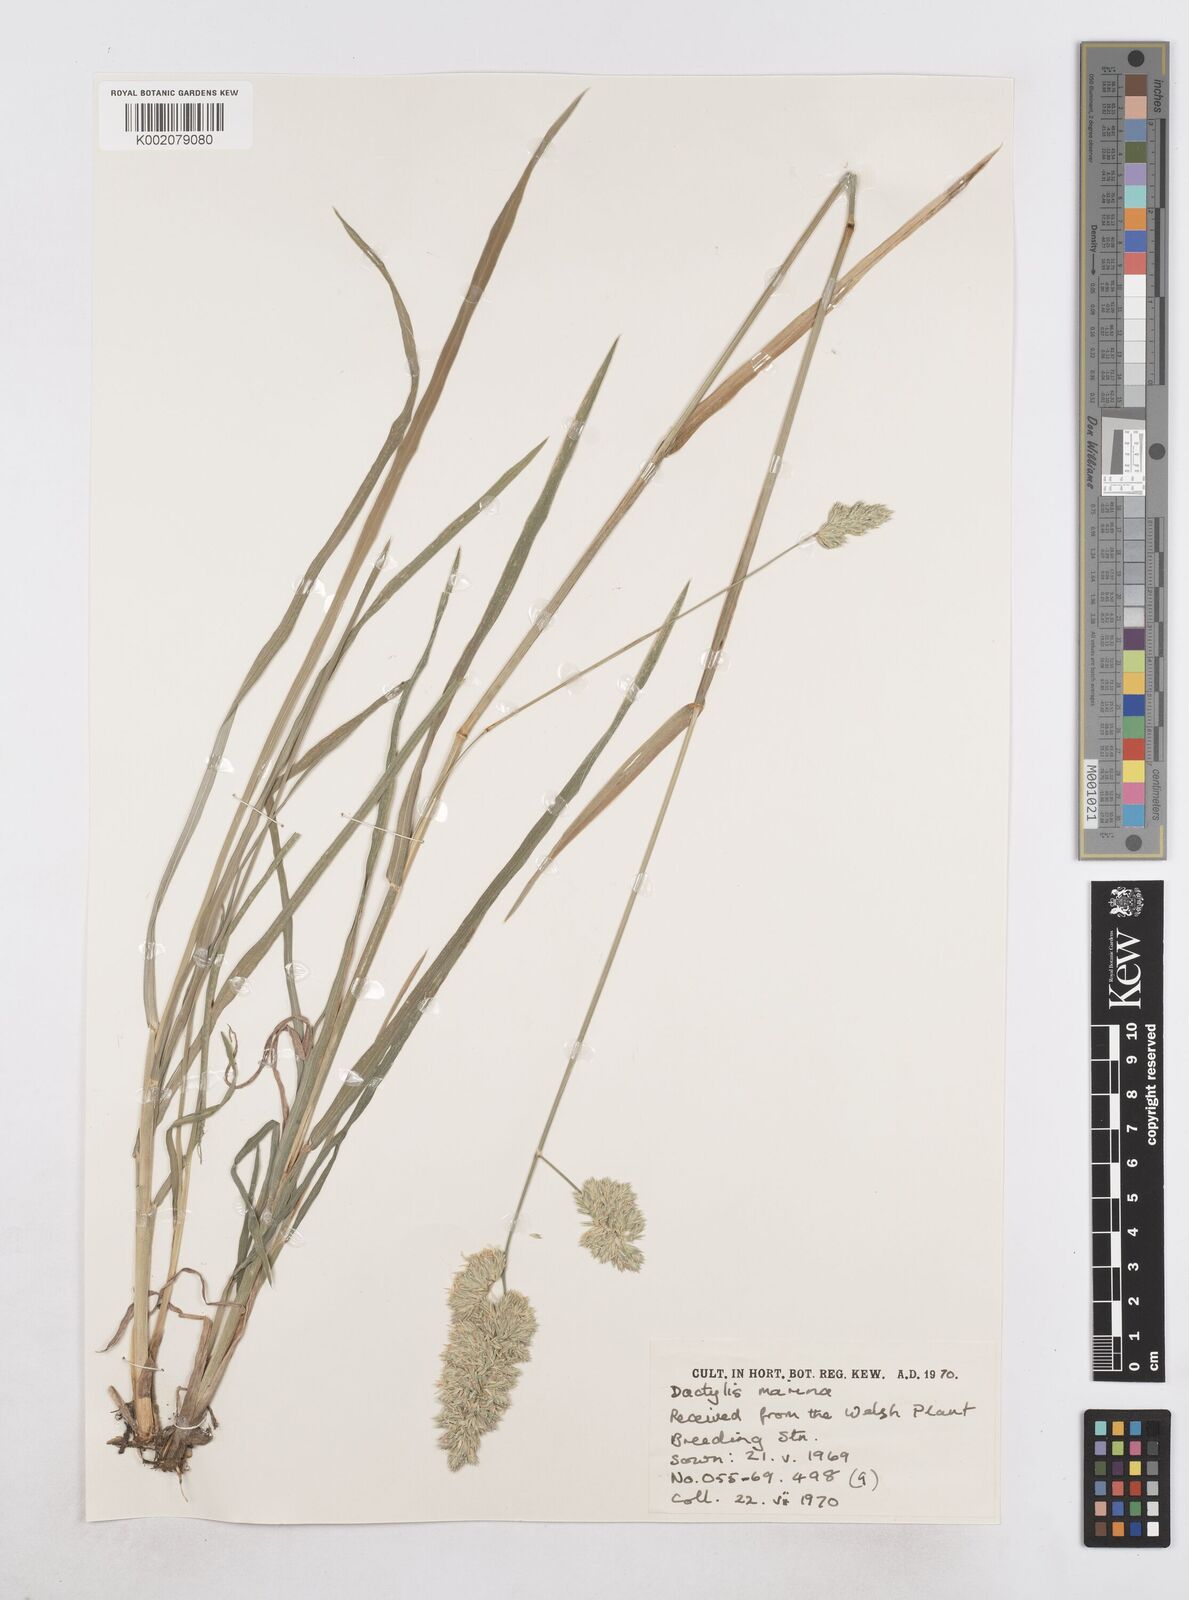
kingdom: Plantae
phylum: Tracheophyta
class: Liliopsida
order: Poales
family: Poaceae
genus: Dactylis
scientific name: Dactylis glomerata
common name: Orchardgrass
